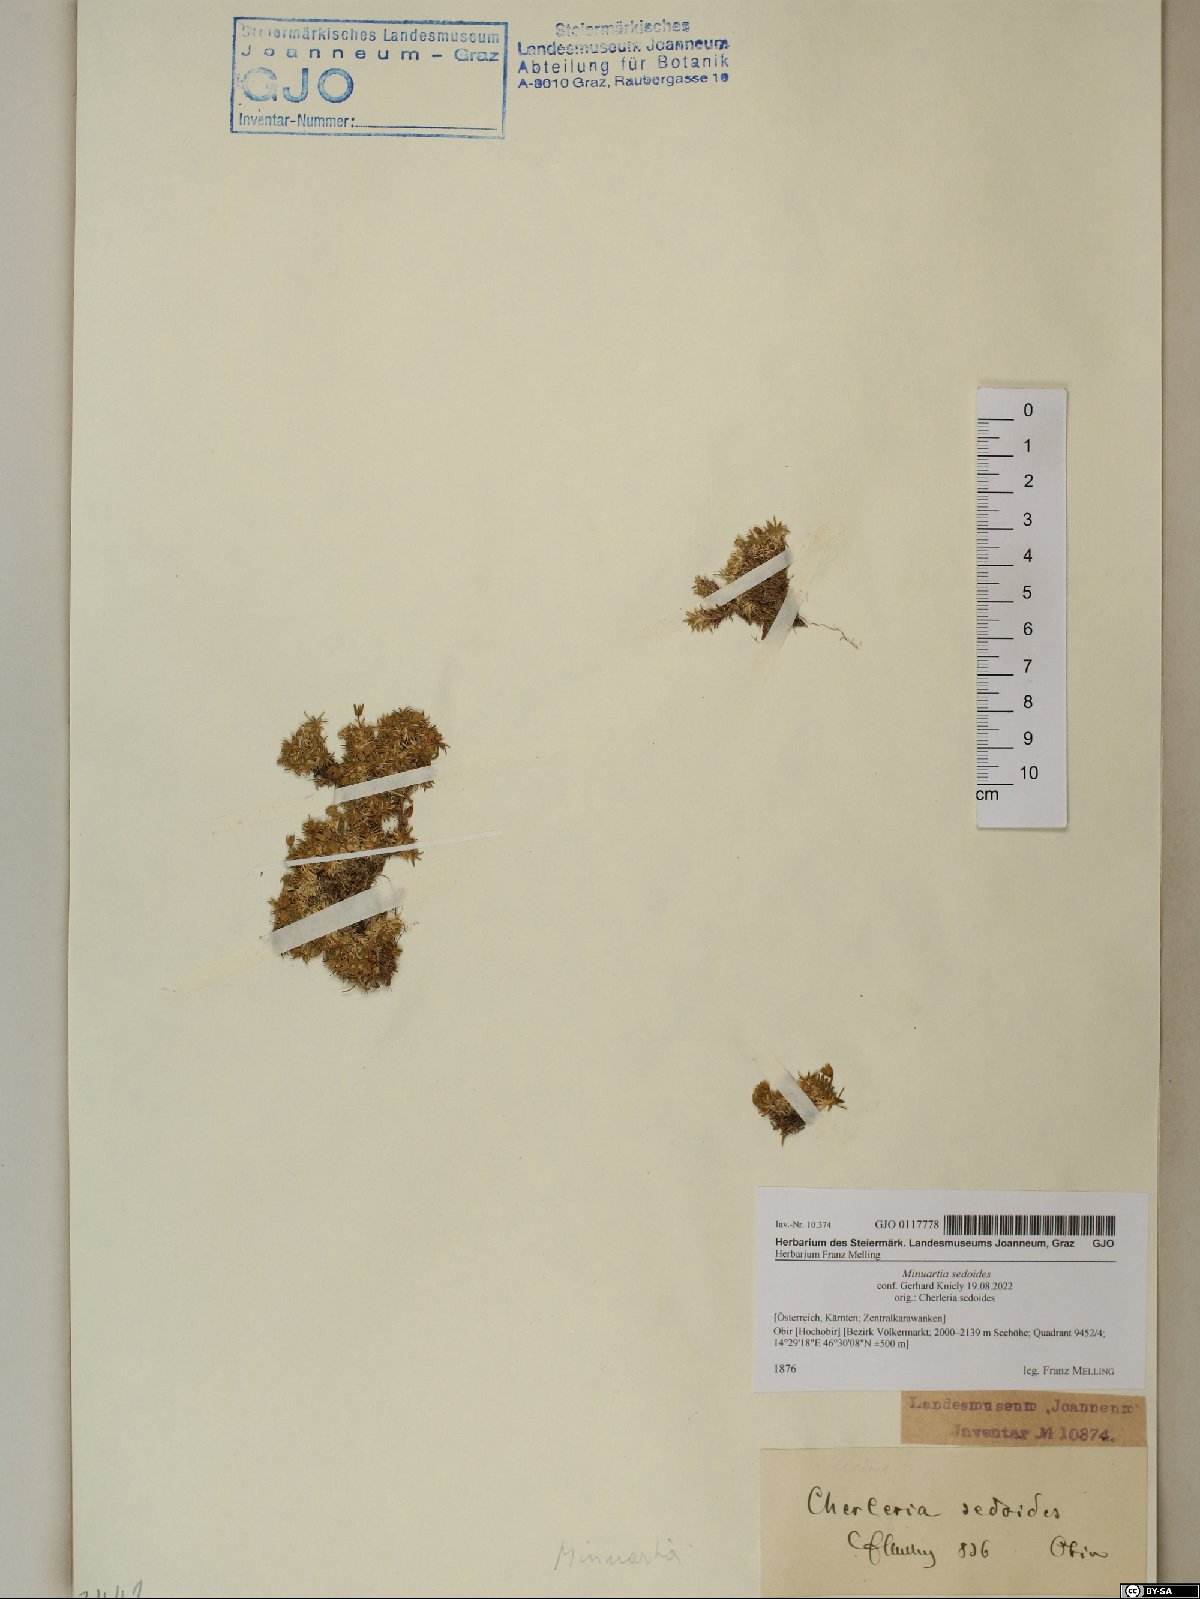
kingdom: Plantae
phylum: Tracheophyta
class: Magnoliopsida
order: Caryophyllales
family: Caryophyllaceae
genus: Cherleria
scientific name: Cherleria sedoides
